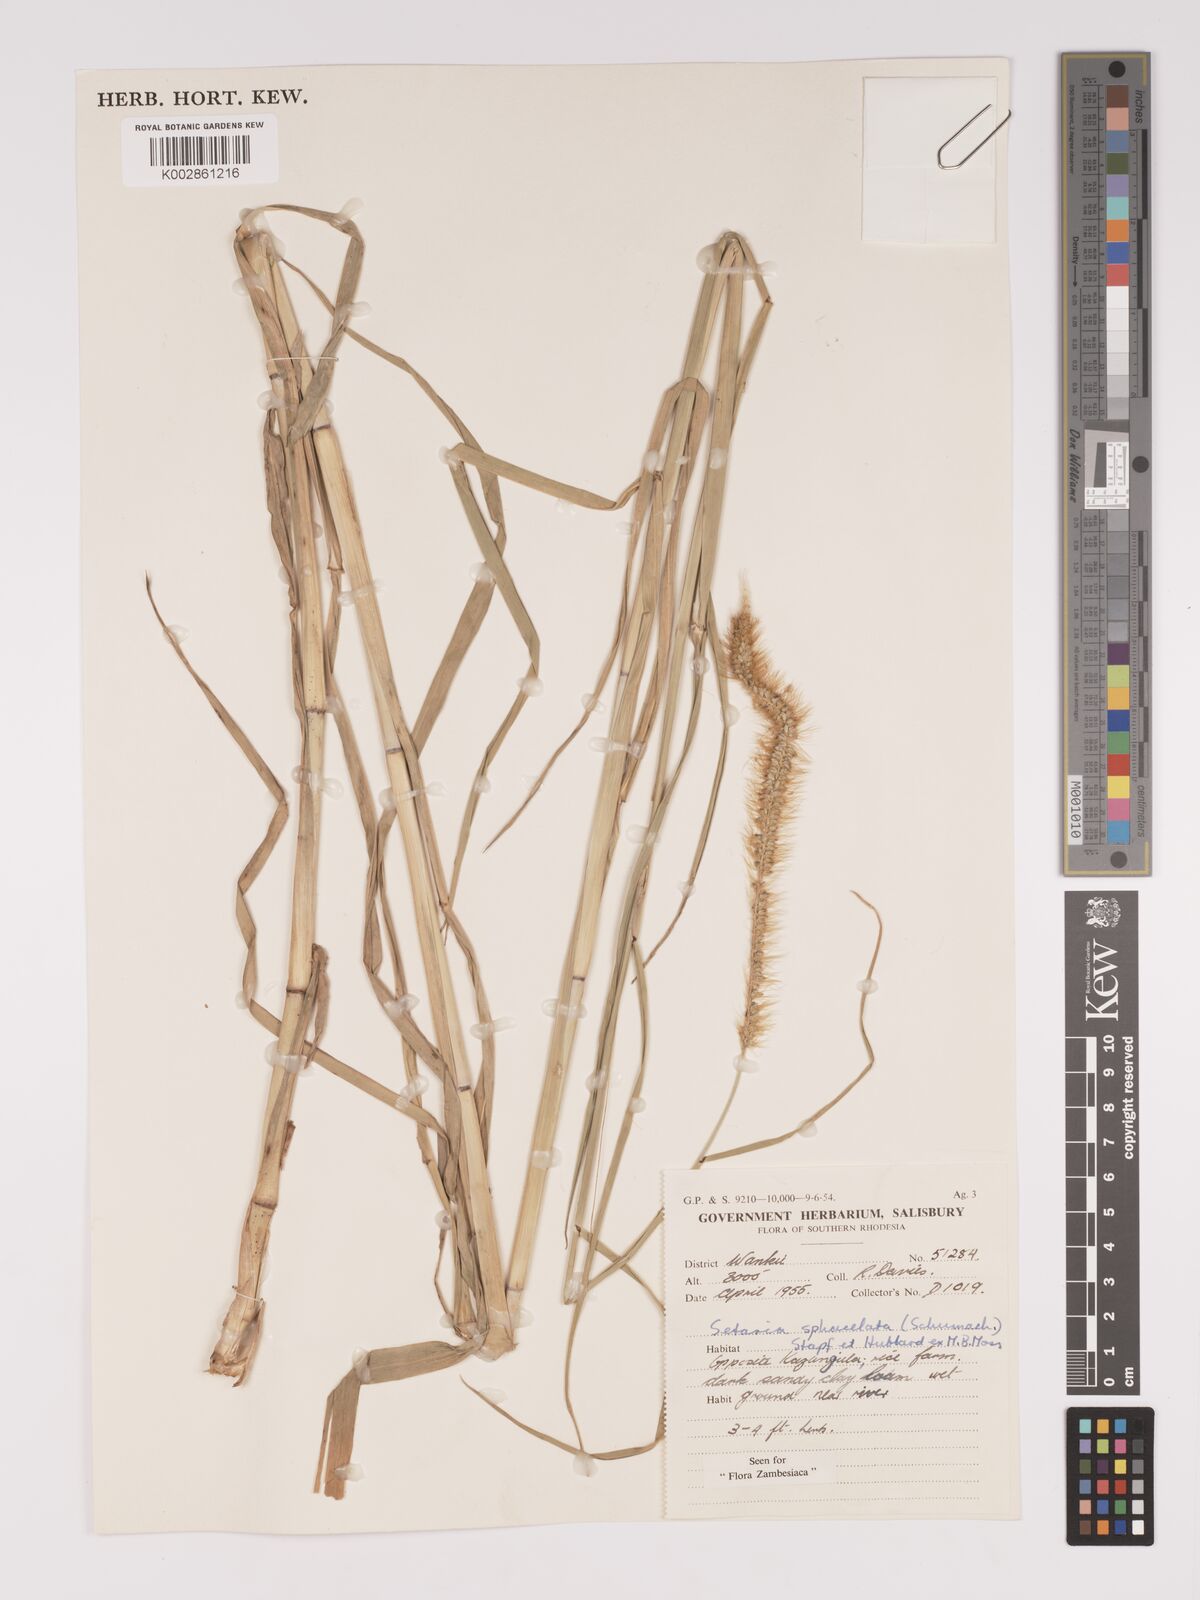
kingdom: Plantae
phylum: Tracheophyta
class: Liliopsida
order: Poales
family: Poaceae
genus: Setaria
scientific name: Setaria sphacelata
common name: African bristlegrass
